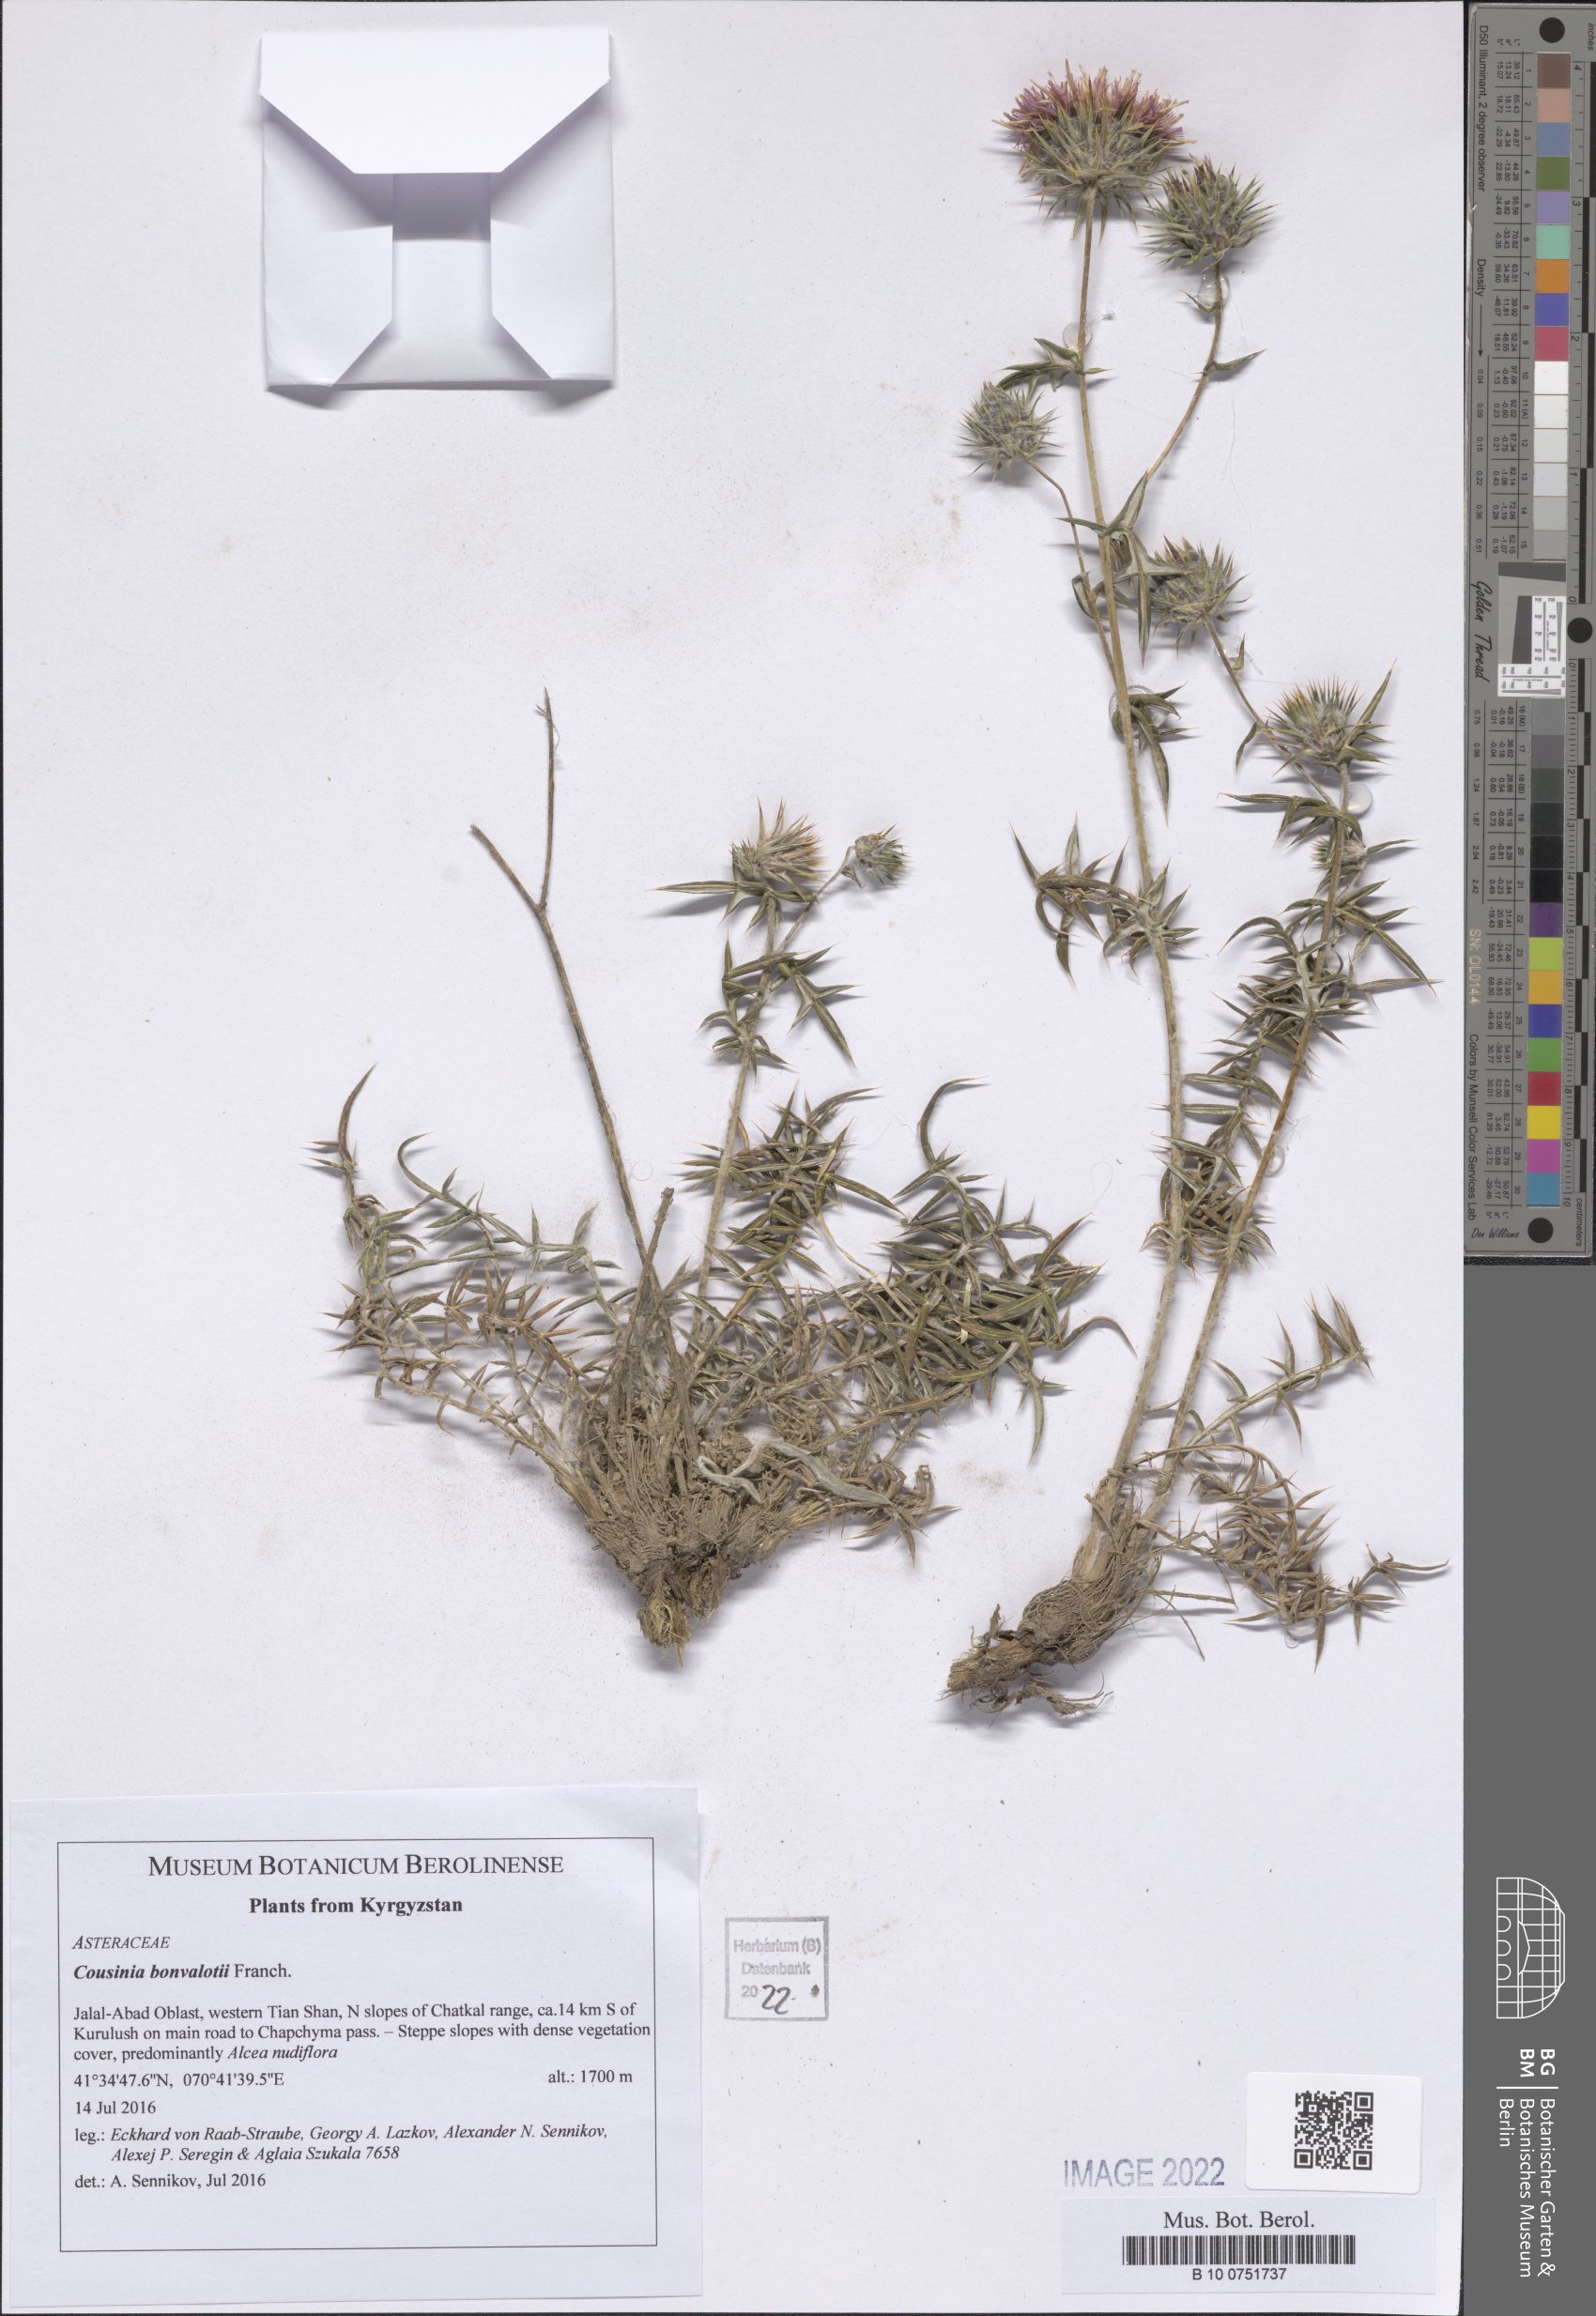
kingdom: Plantae
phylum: Tracheophyta
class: Magnoliopsida
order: Asterales
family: Asteraceae
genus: Cousinia
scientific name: Cousinia bonvalotii
